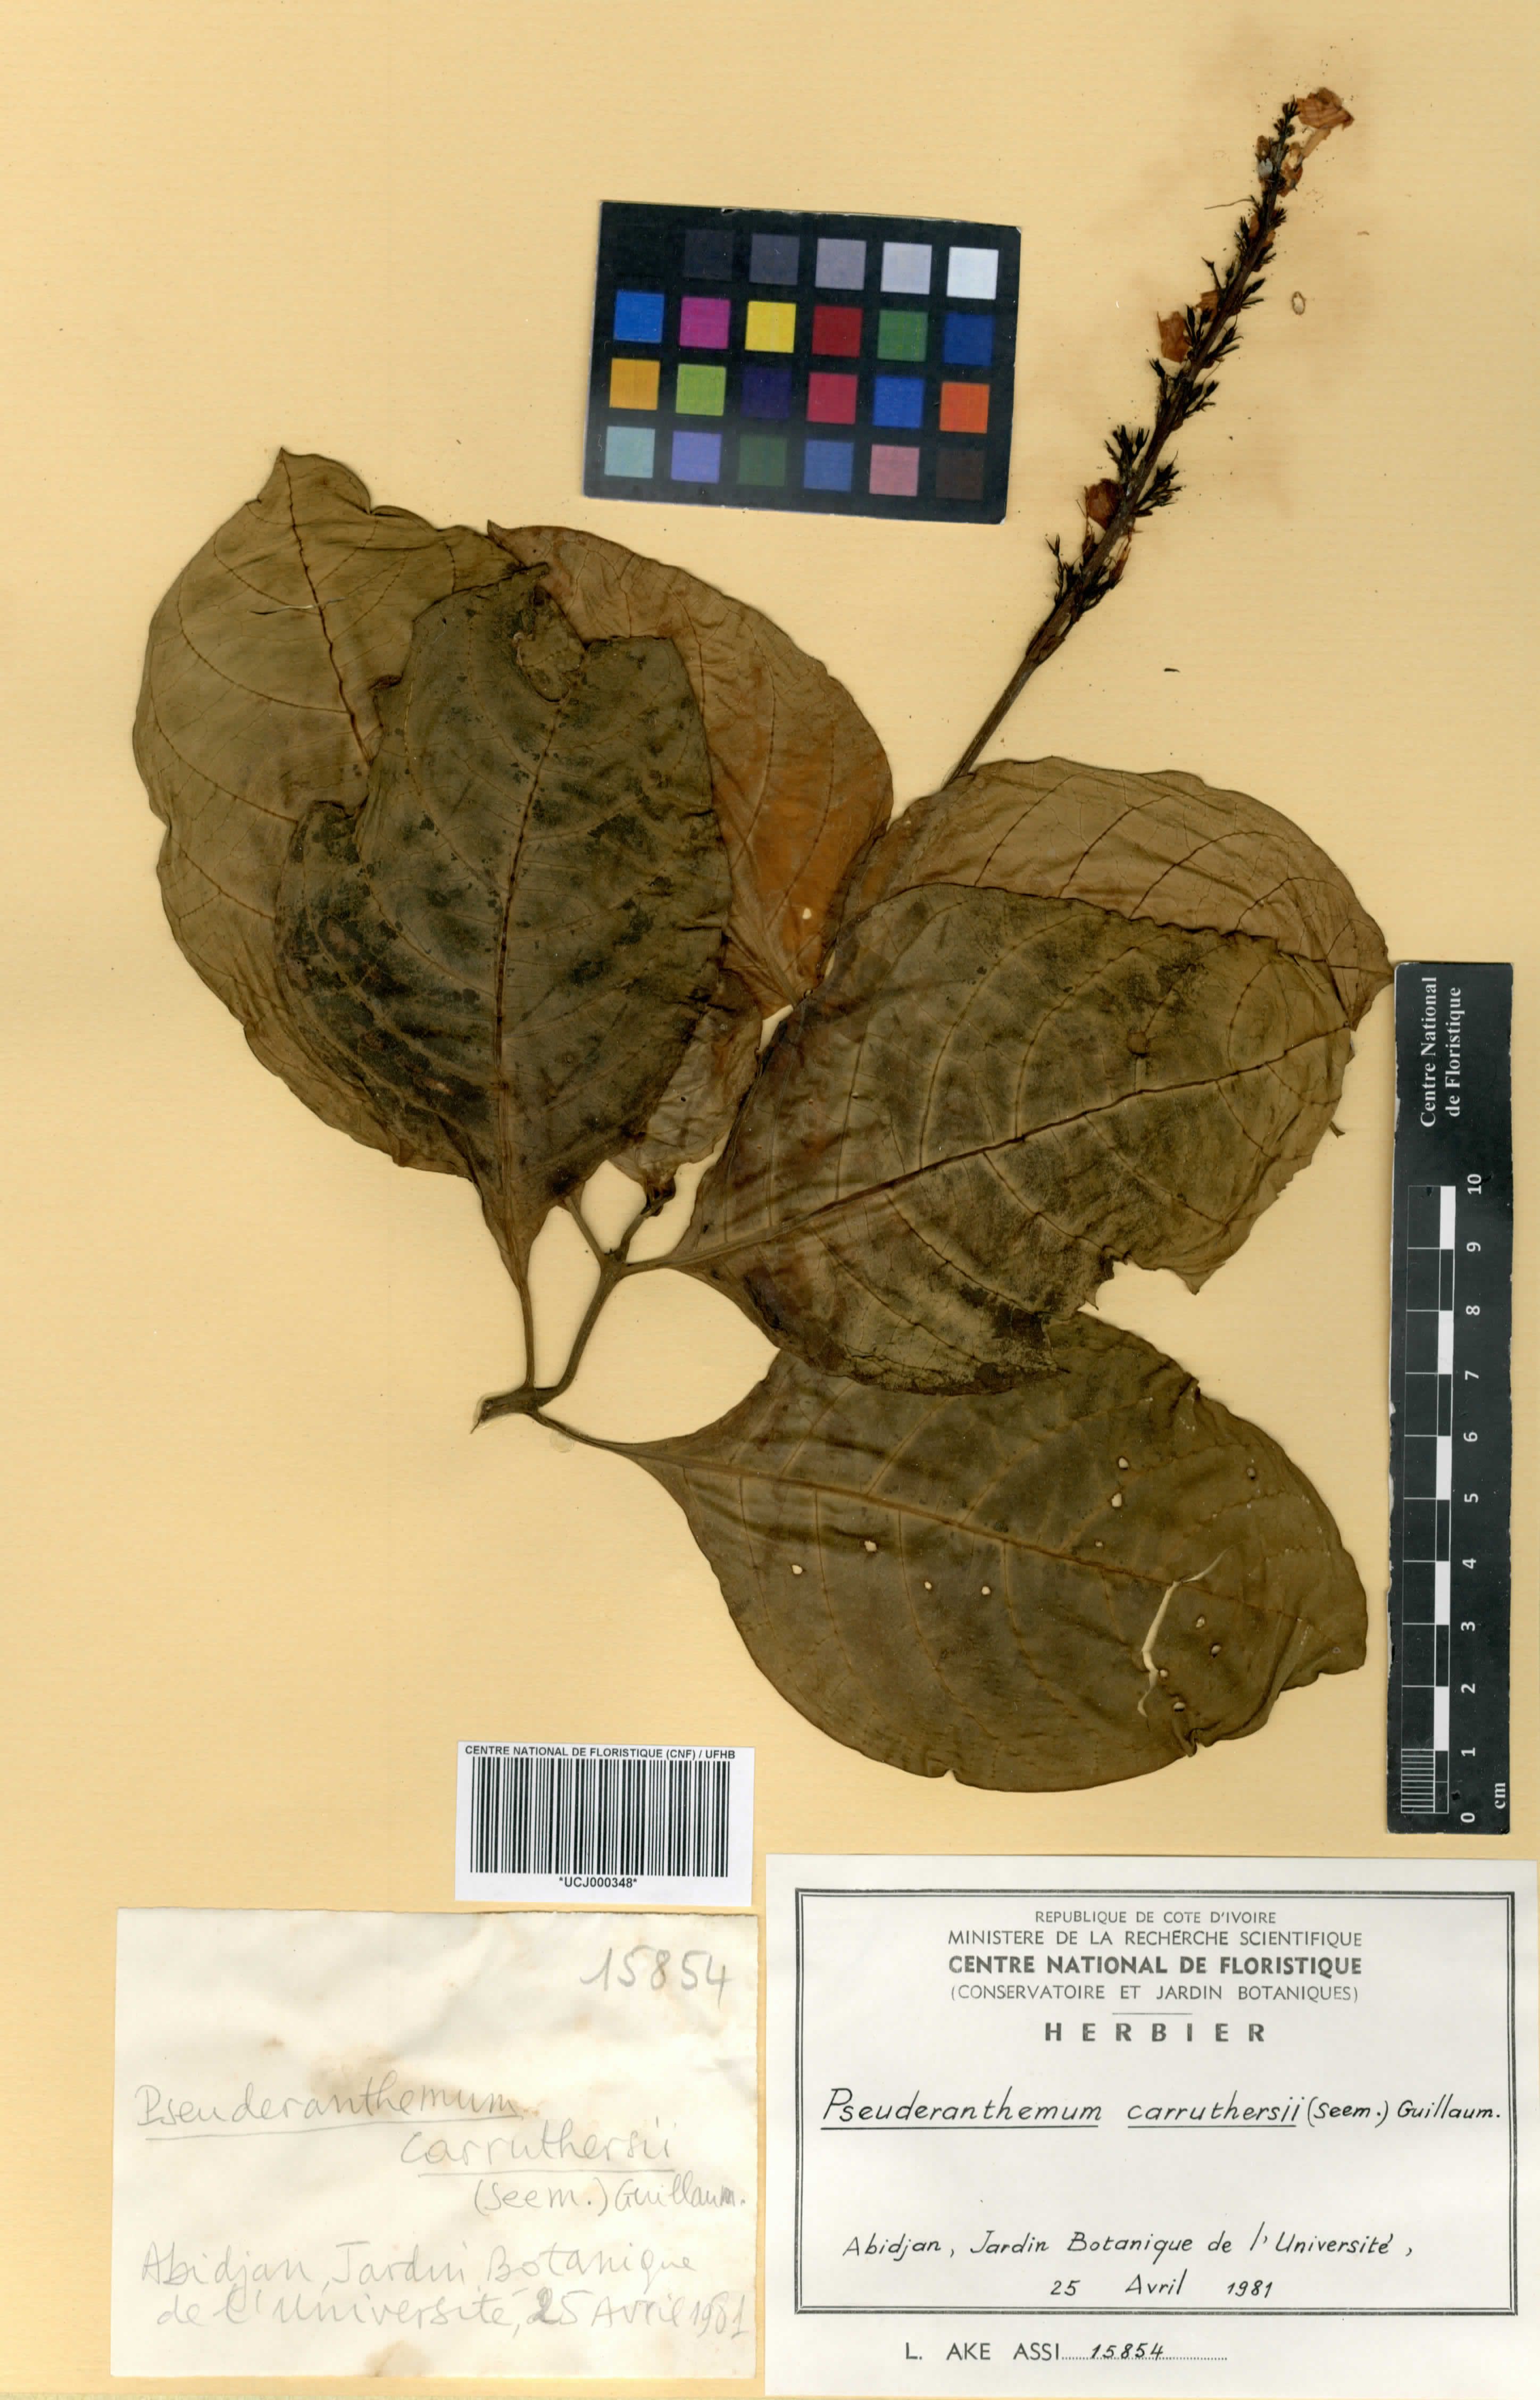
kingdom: Plantae
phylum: Tracheophyta
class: Magnoliopsida
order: Lamiales
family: Acanthaceae
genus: Pseuderanthemum
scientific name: Pseuderanthemum maculatum
